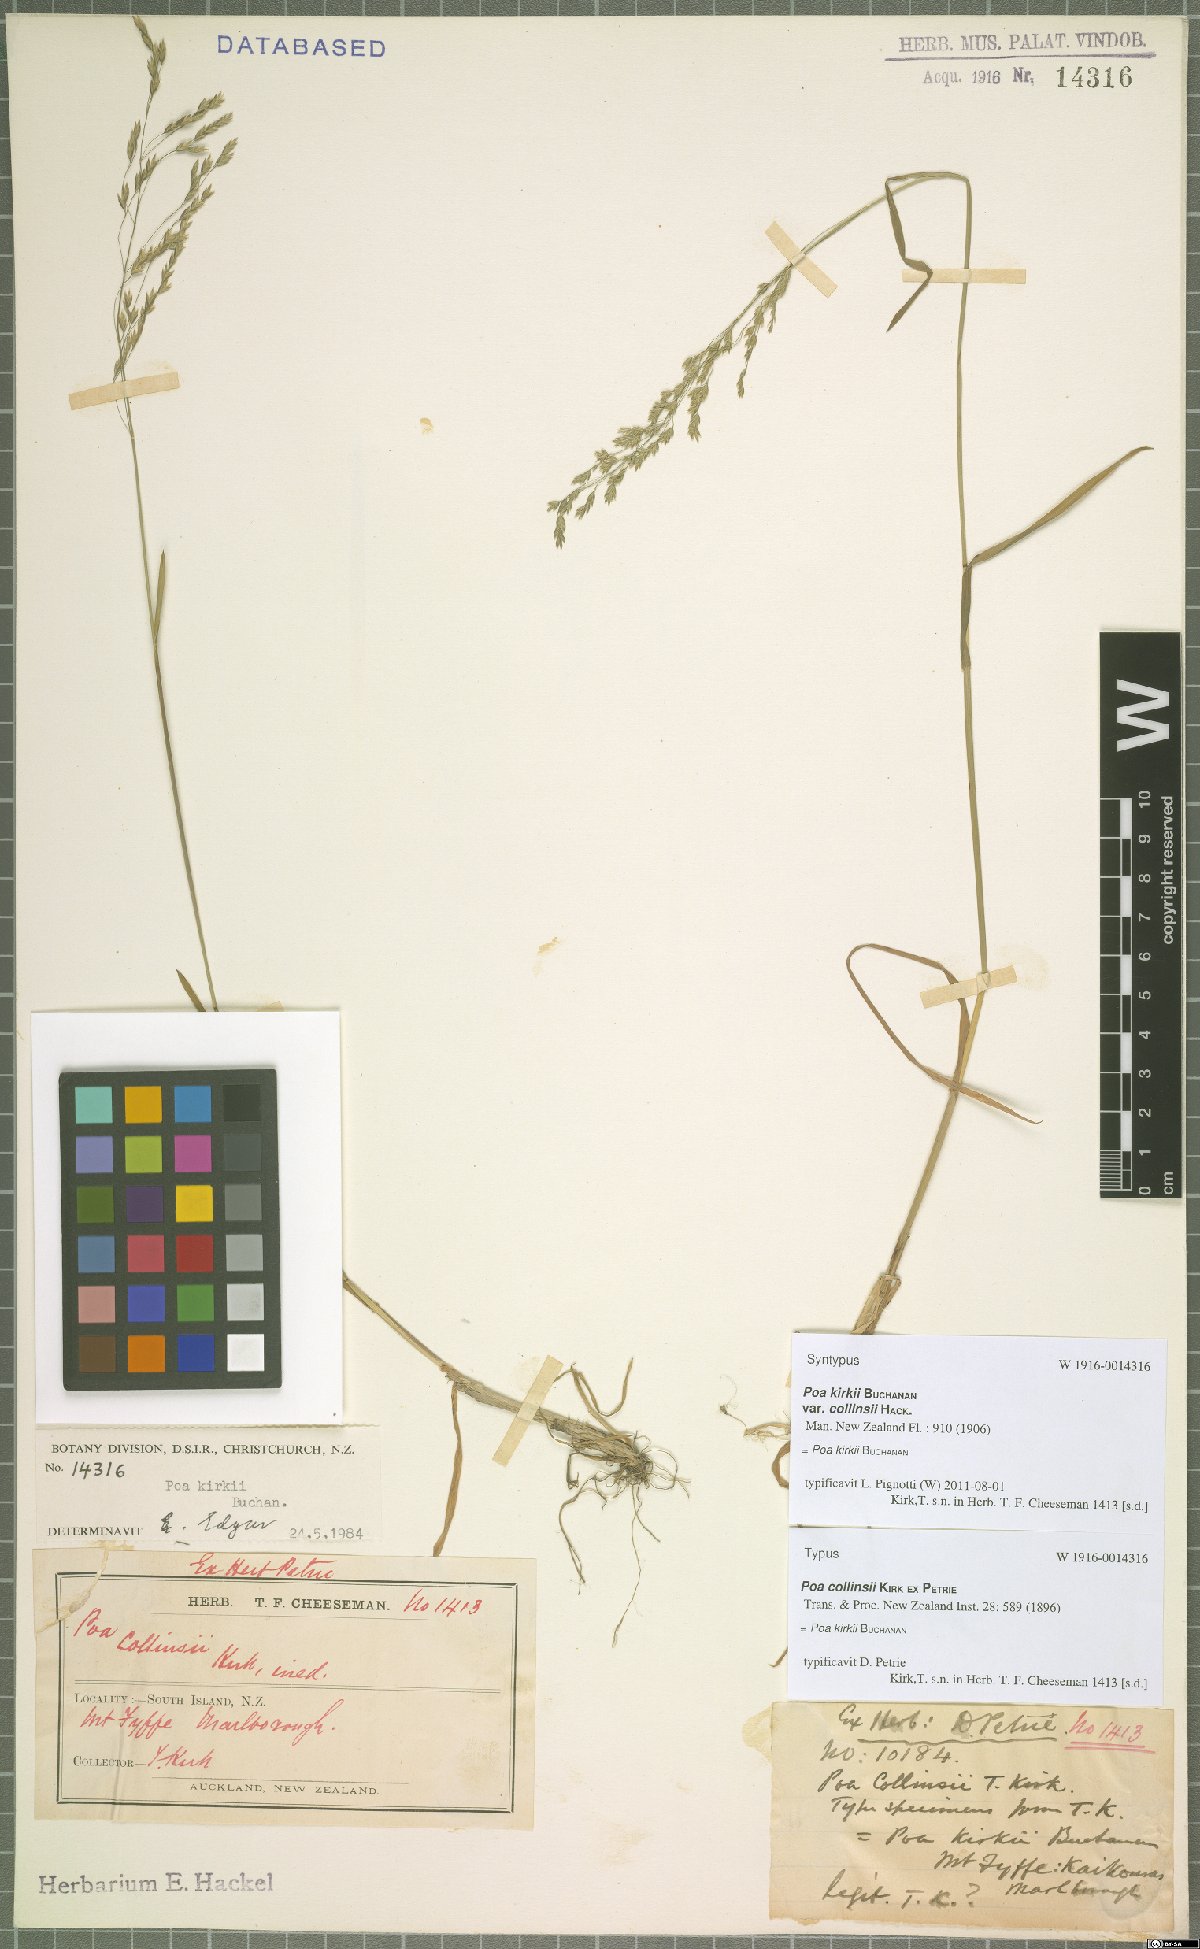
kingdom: Plantae
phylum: Tracheophyta
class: Liliopsida
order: Poales
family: Poaceae
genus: Poa
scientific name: Poa kirkii
